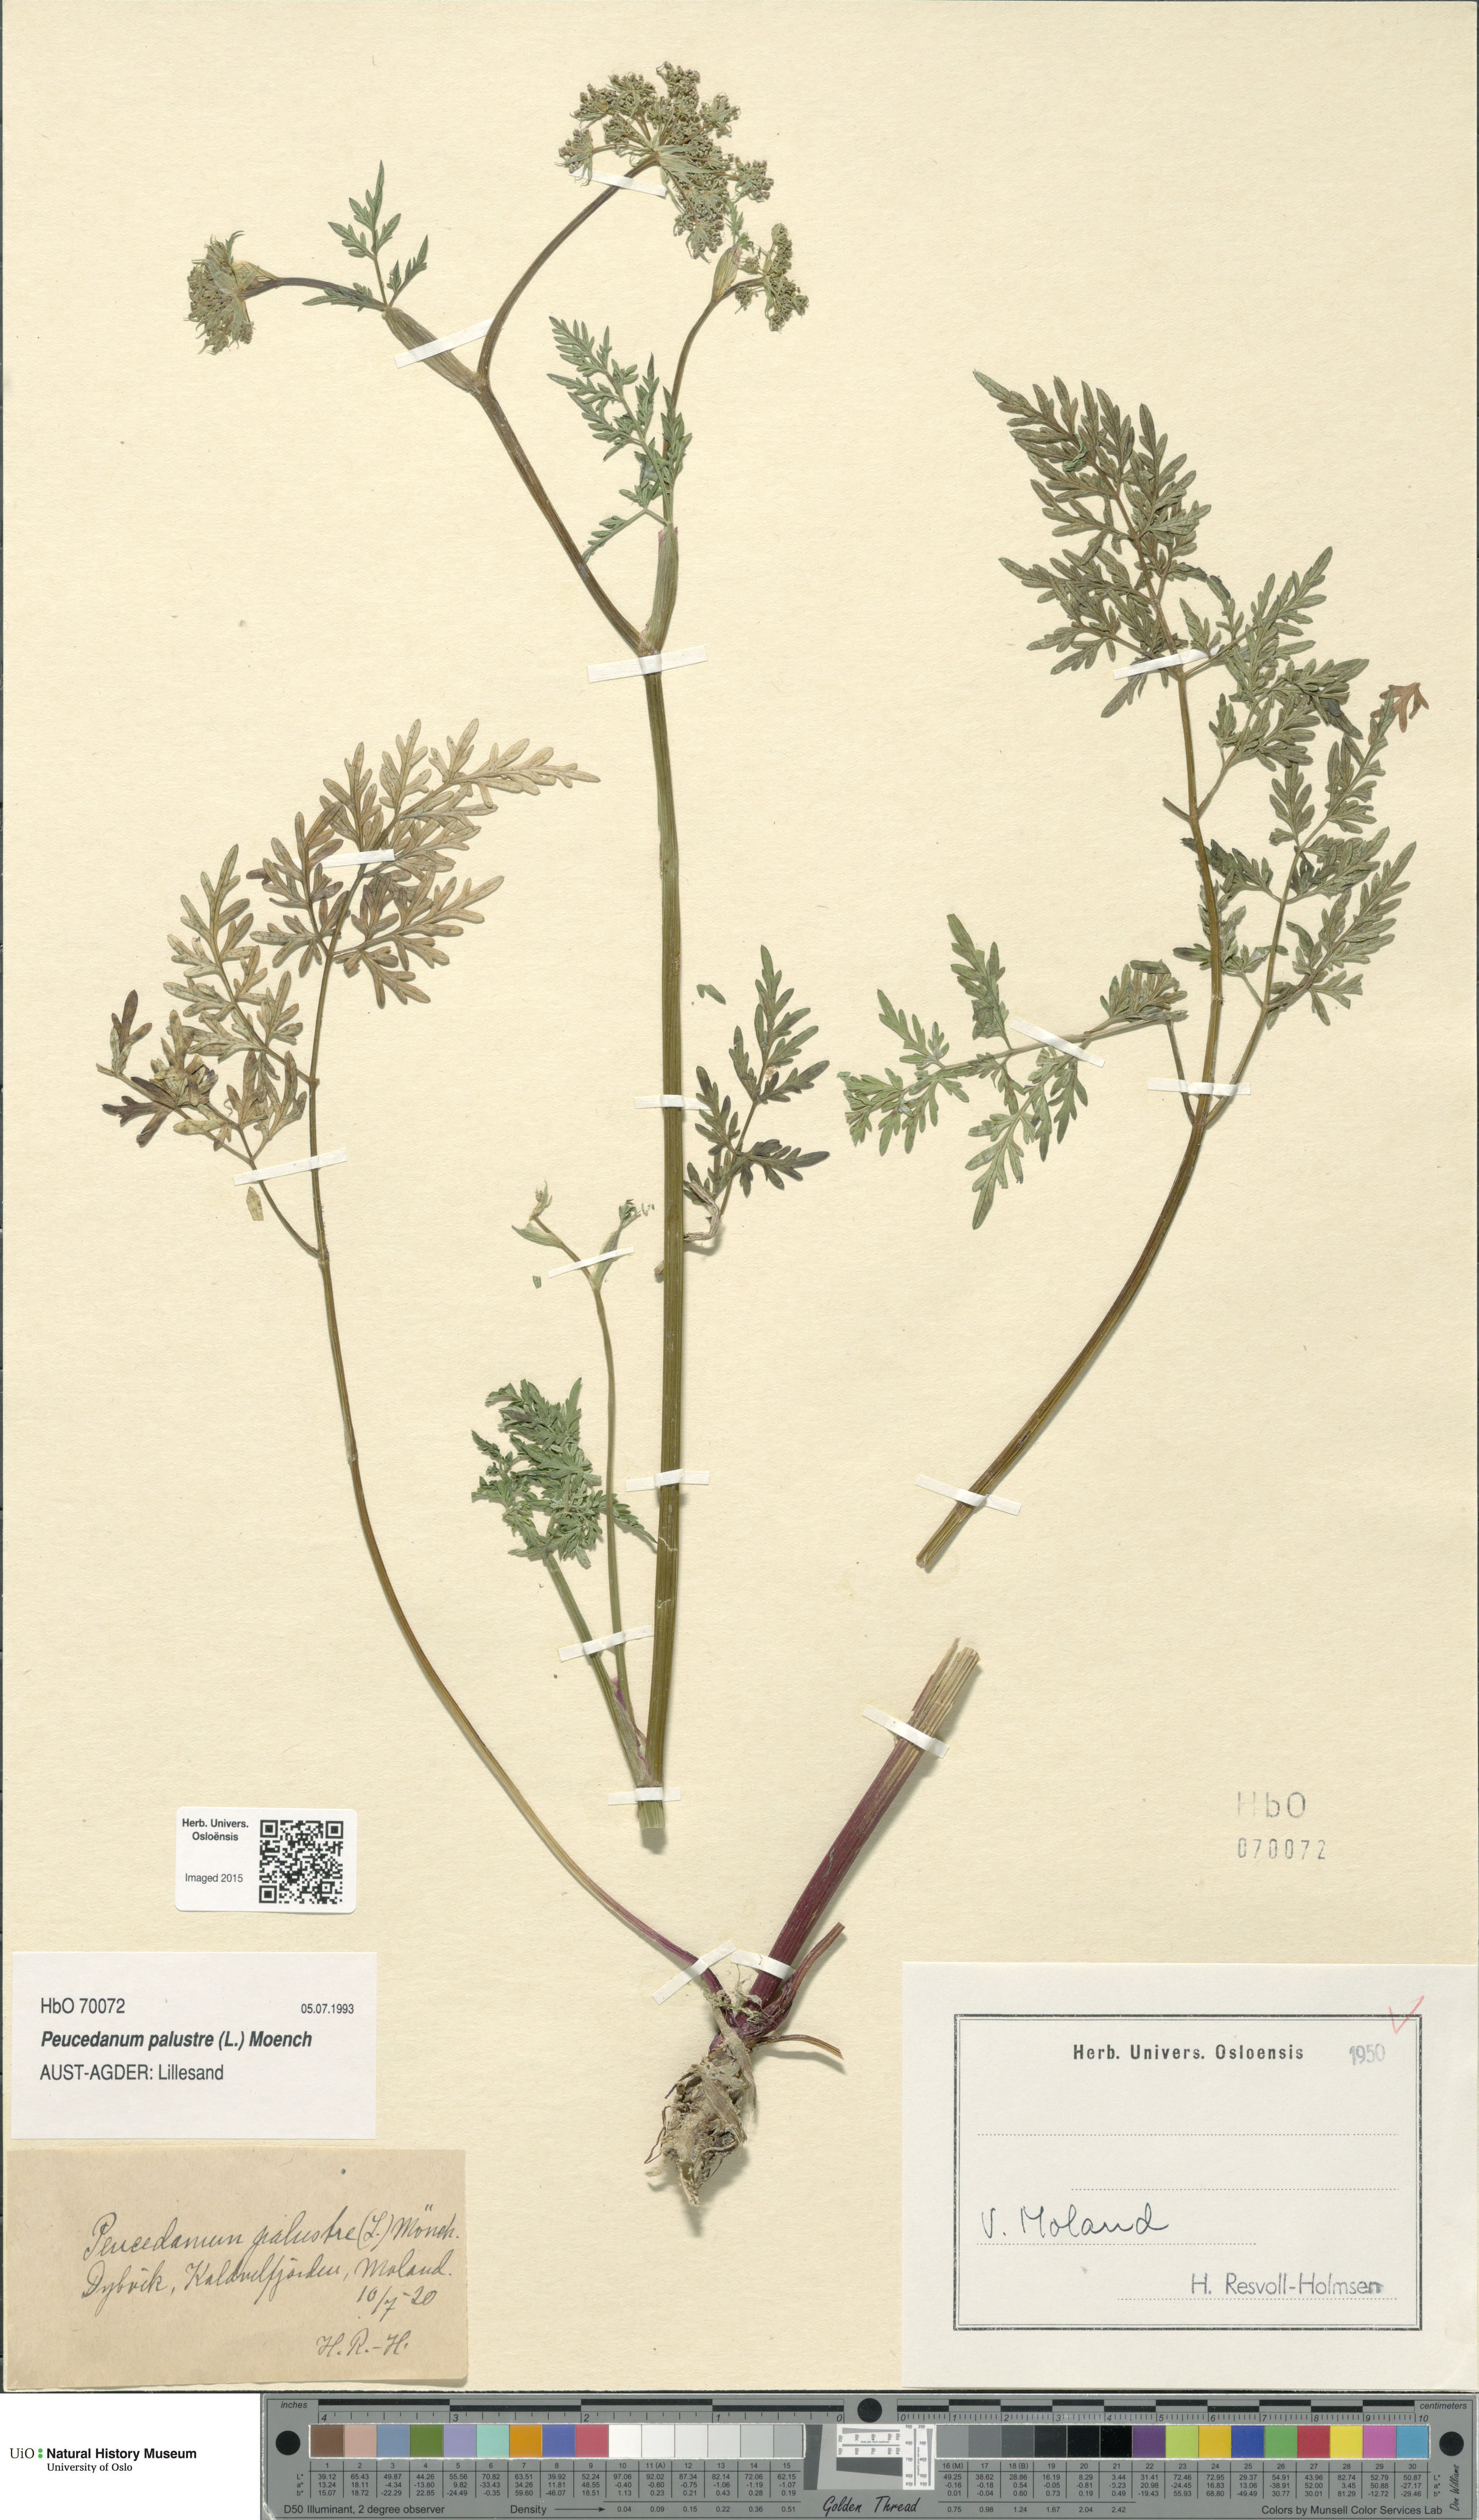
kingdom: Plantae
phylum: Tracheophyta
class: Magnoliopsida
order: Apiales
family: Apiaceae
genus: Thysselinum
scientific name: Thysselinum palustre
